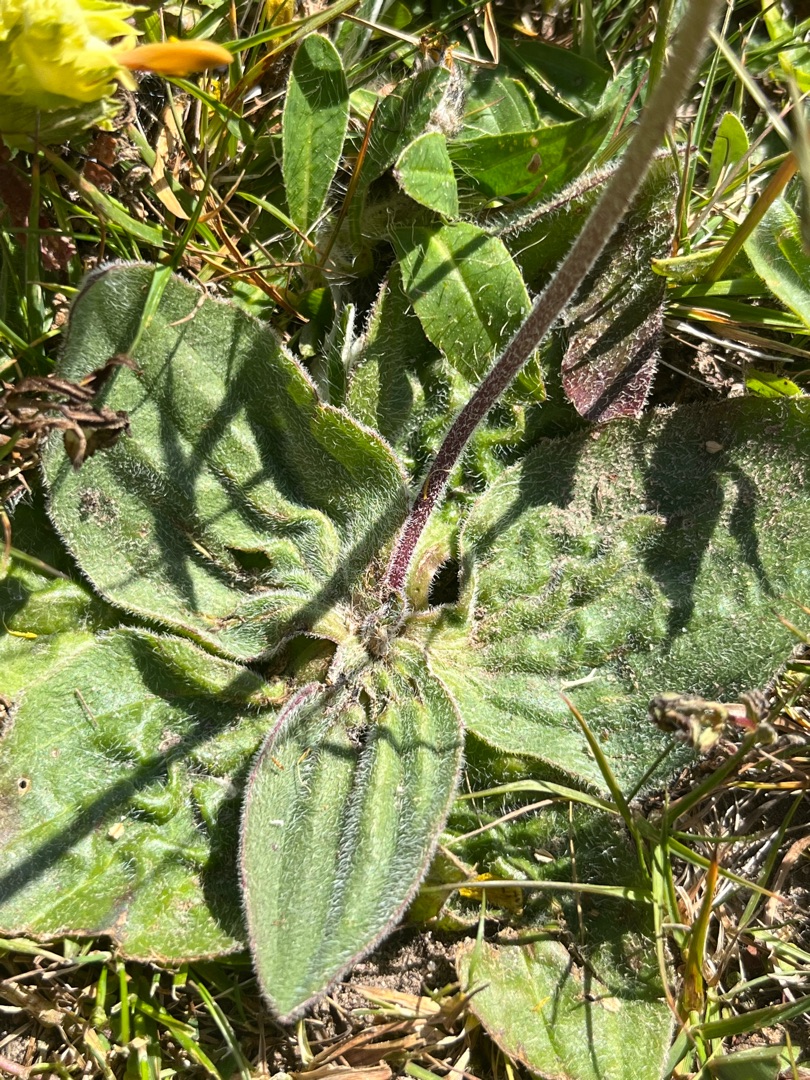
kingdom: Plantae
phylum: Tracheophyta
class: Magnoliopsida
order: Lamiales
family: Plantaginaceae
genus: Plantago
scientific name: Plantago media
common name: Dunet vejbred
